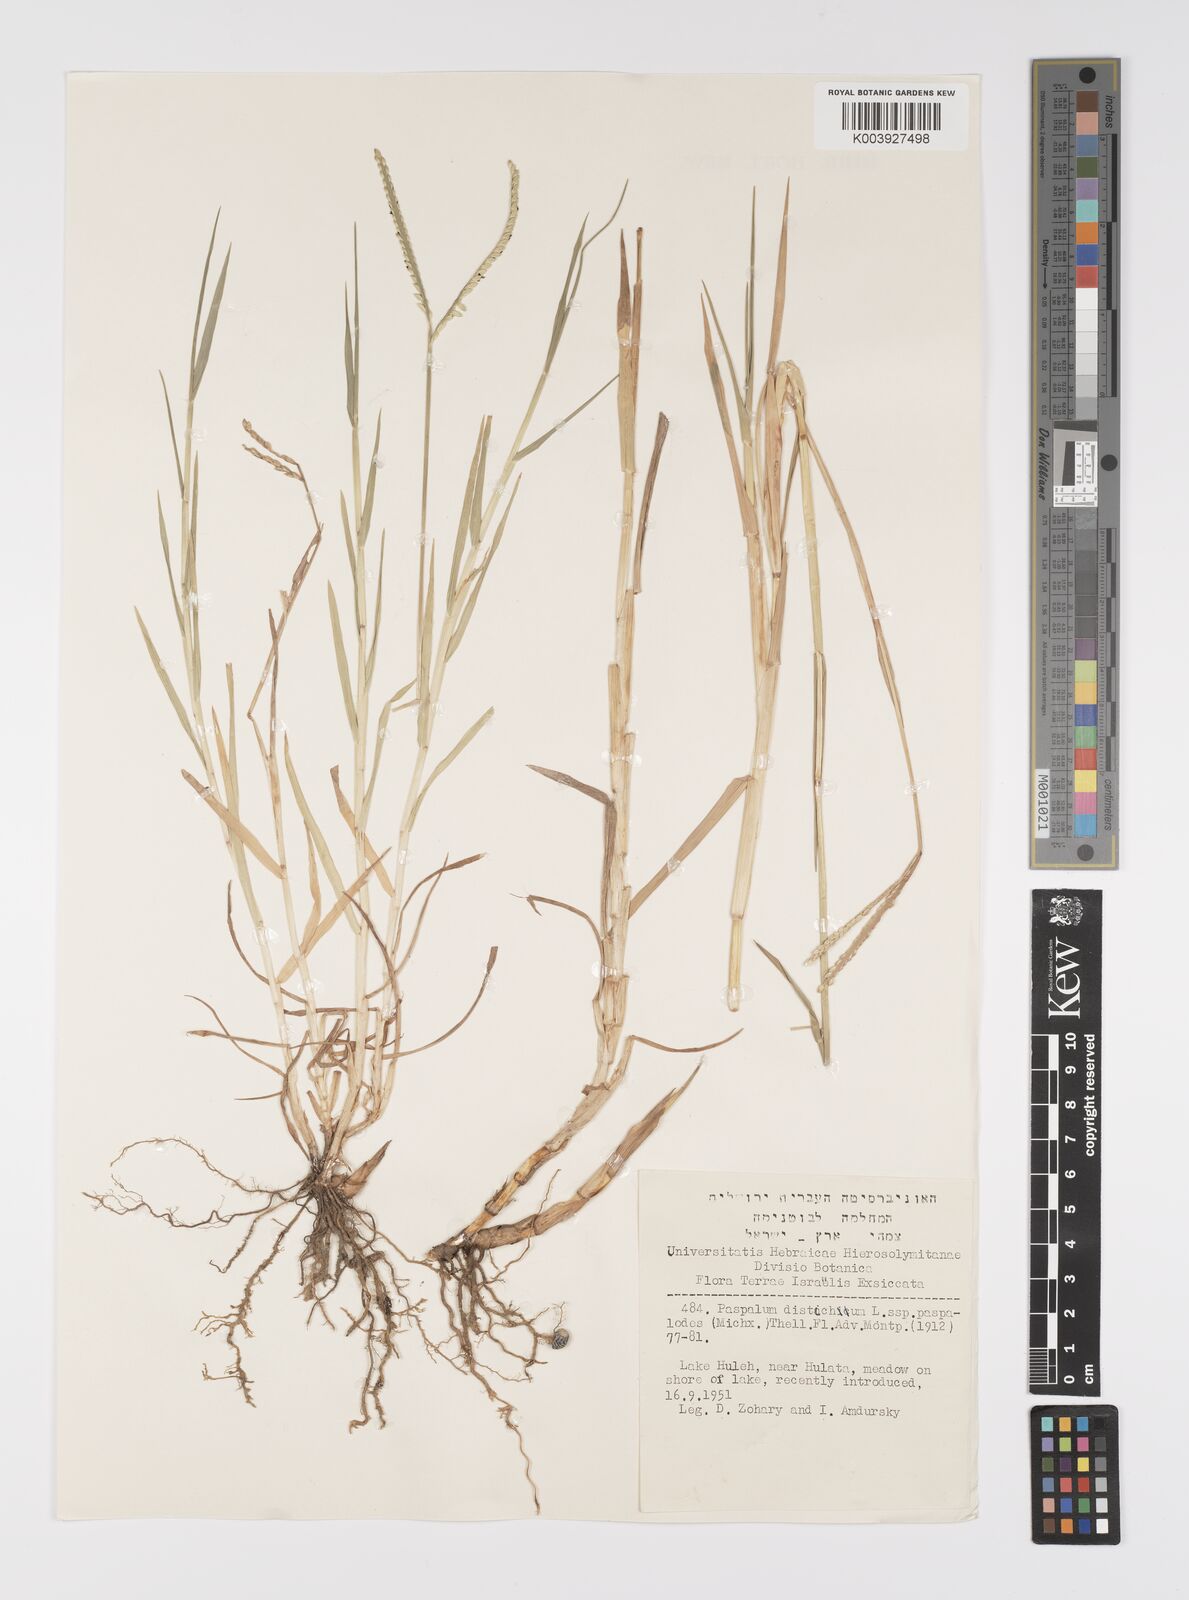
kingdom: Plantae
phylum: Tracheophyta
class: Liliopsida
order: Poales
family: Poaceae
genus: Paspalum
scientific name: Paspalum distichum
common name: Knotgrass
